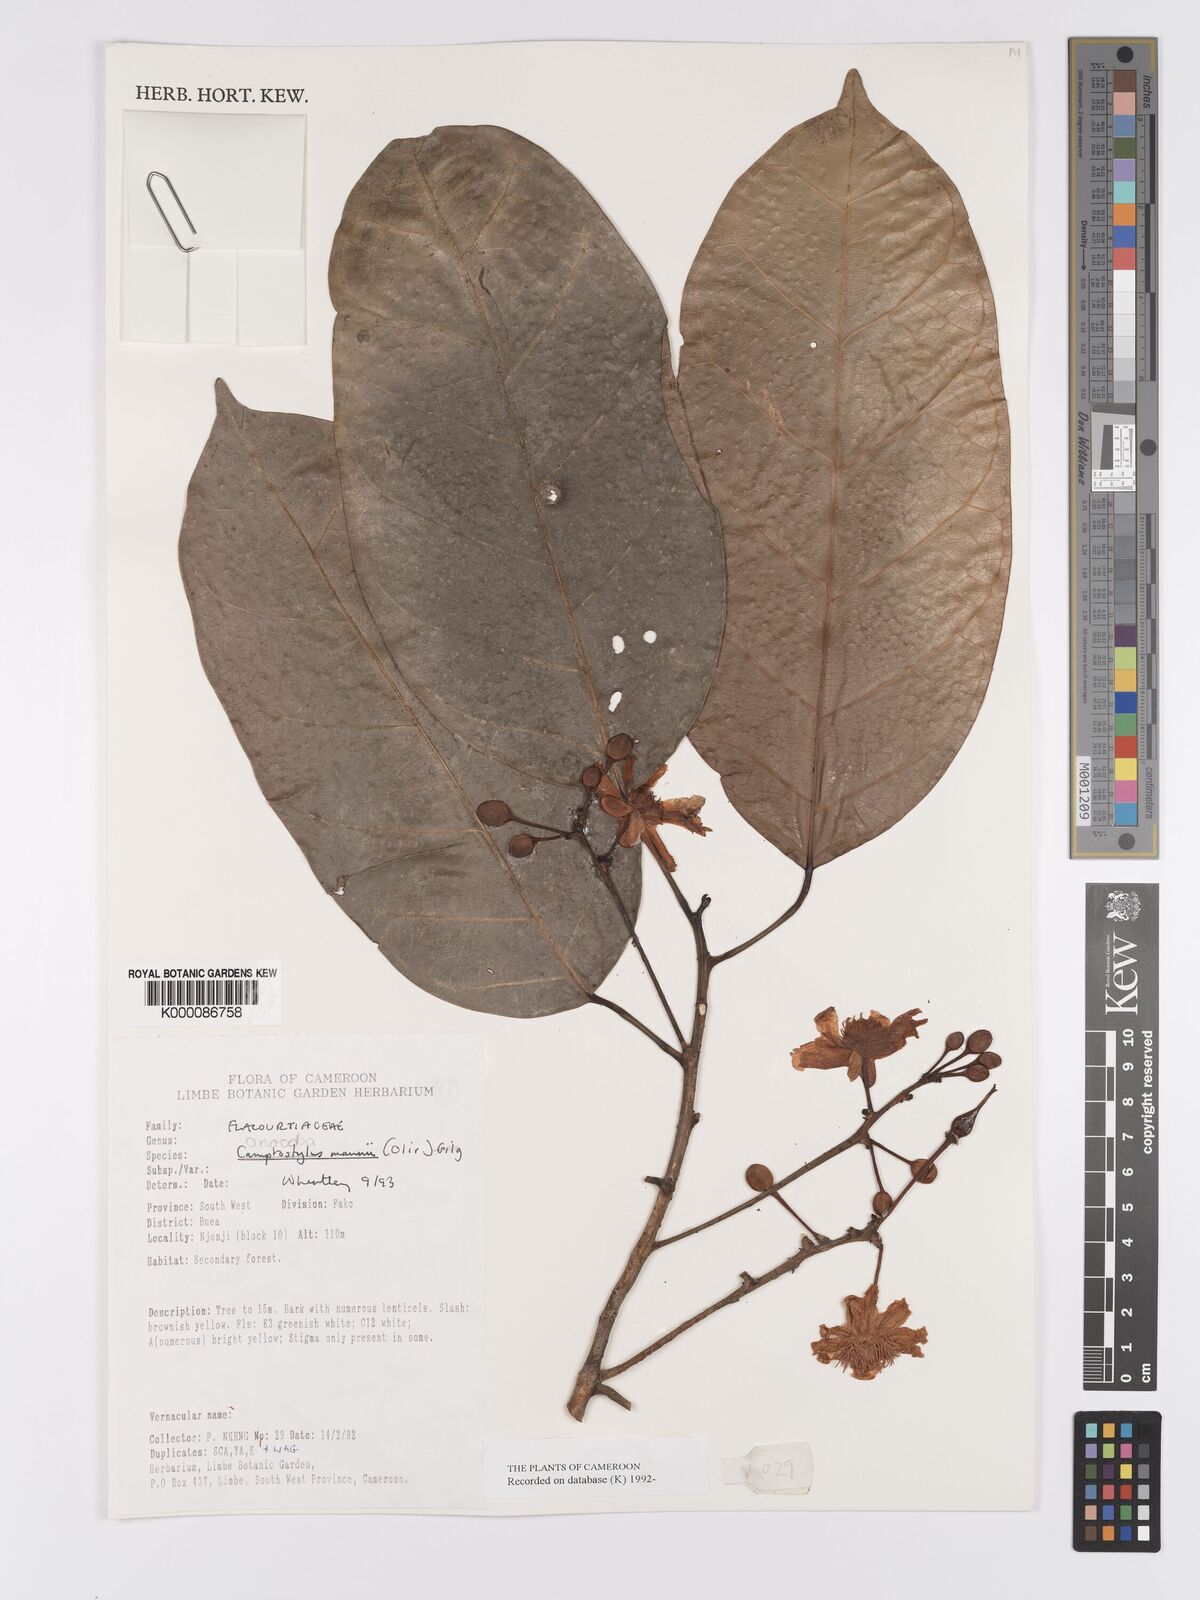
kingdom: Plantae
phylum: Tracheophyta
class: Magnoliopsida
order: Malpighiales
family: Achariaceae
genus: Camptostylus
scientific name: Camptostylus mannii
